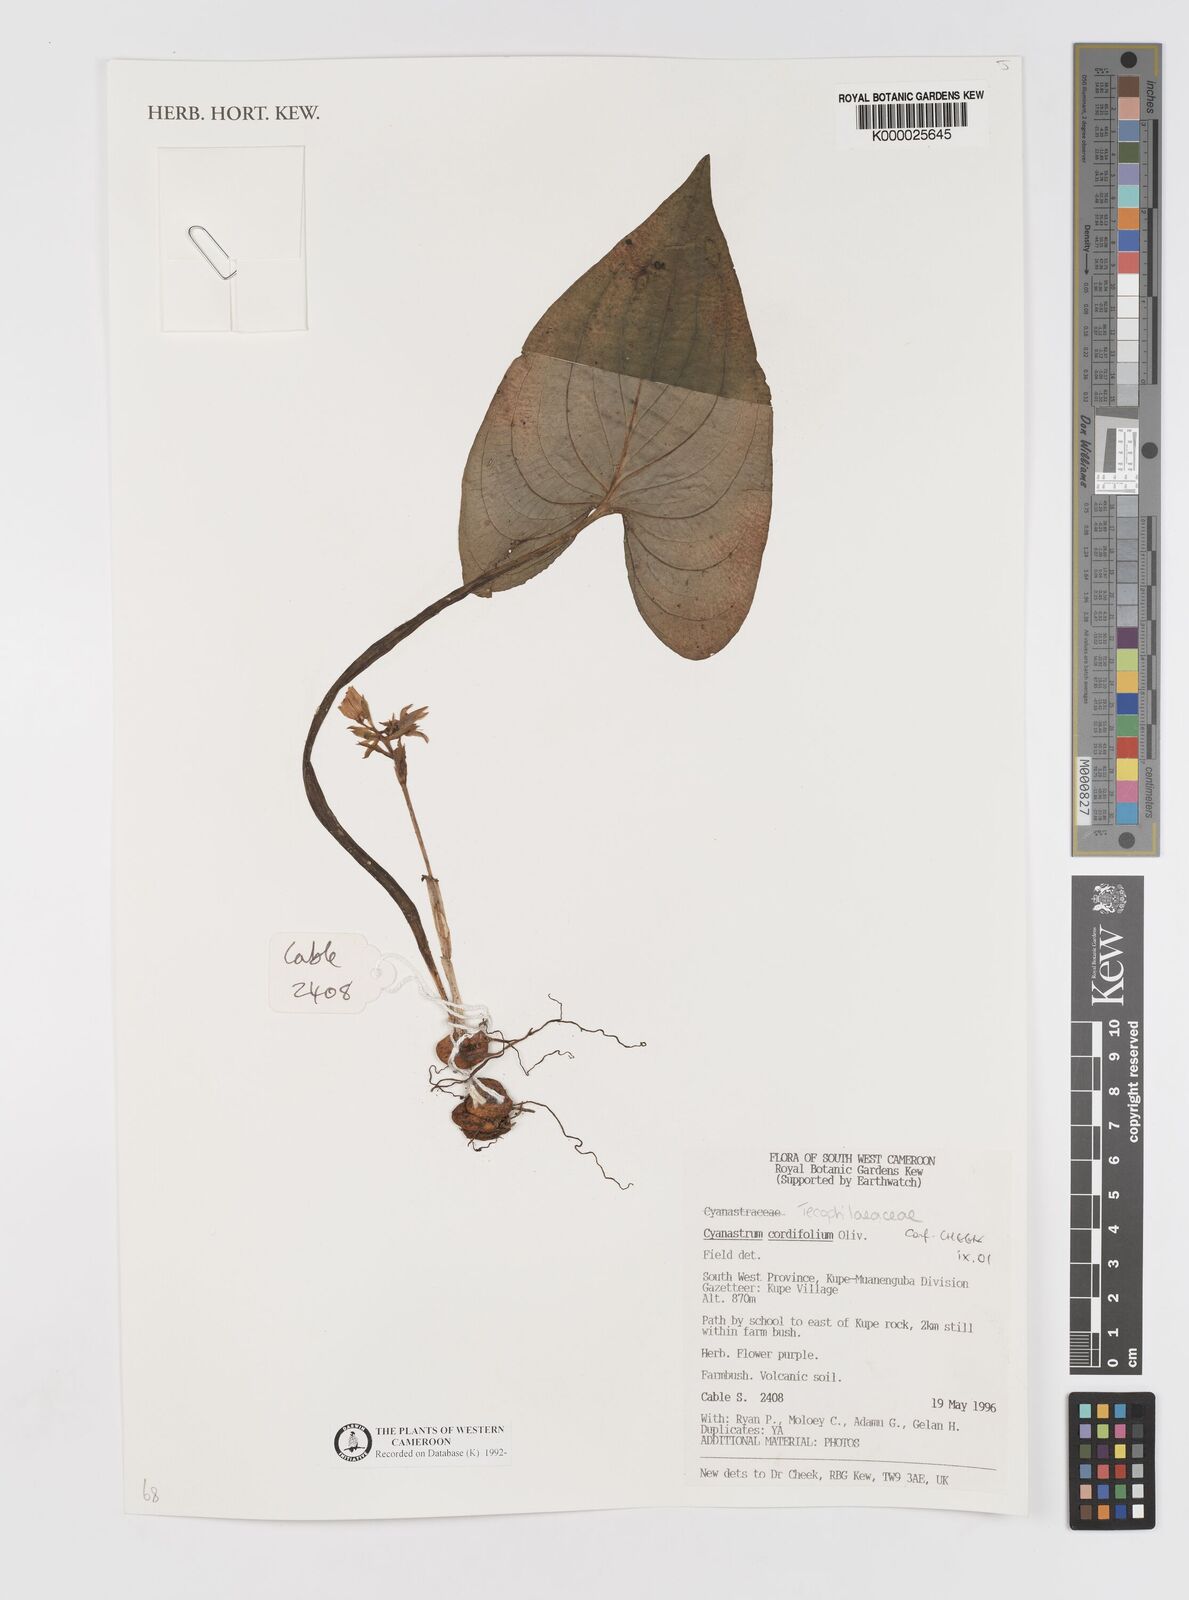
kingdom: Plantae
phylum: Tracheophyta
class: Liliopsida
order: Asparagales
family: Tecophilaeaceae
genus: Cyanastrum
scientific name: Cyanastrum cordifolium
